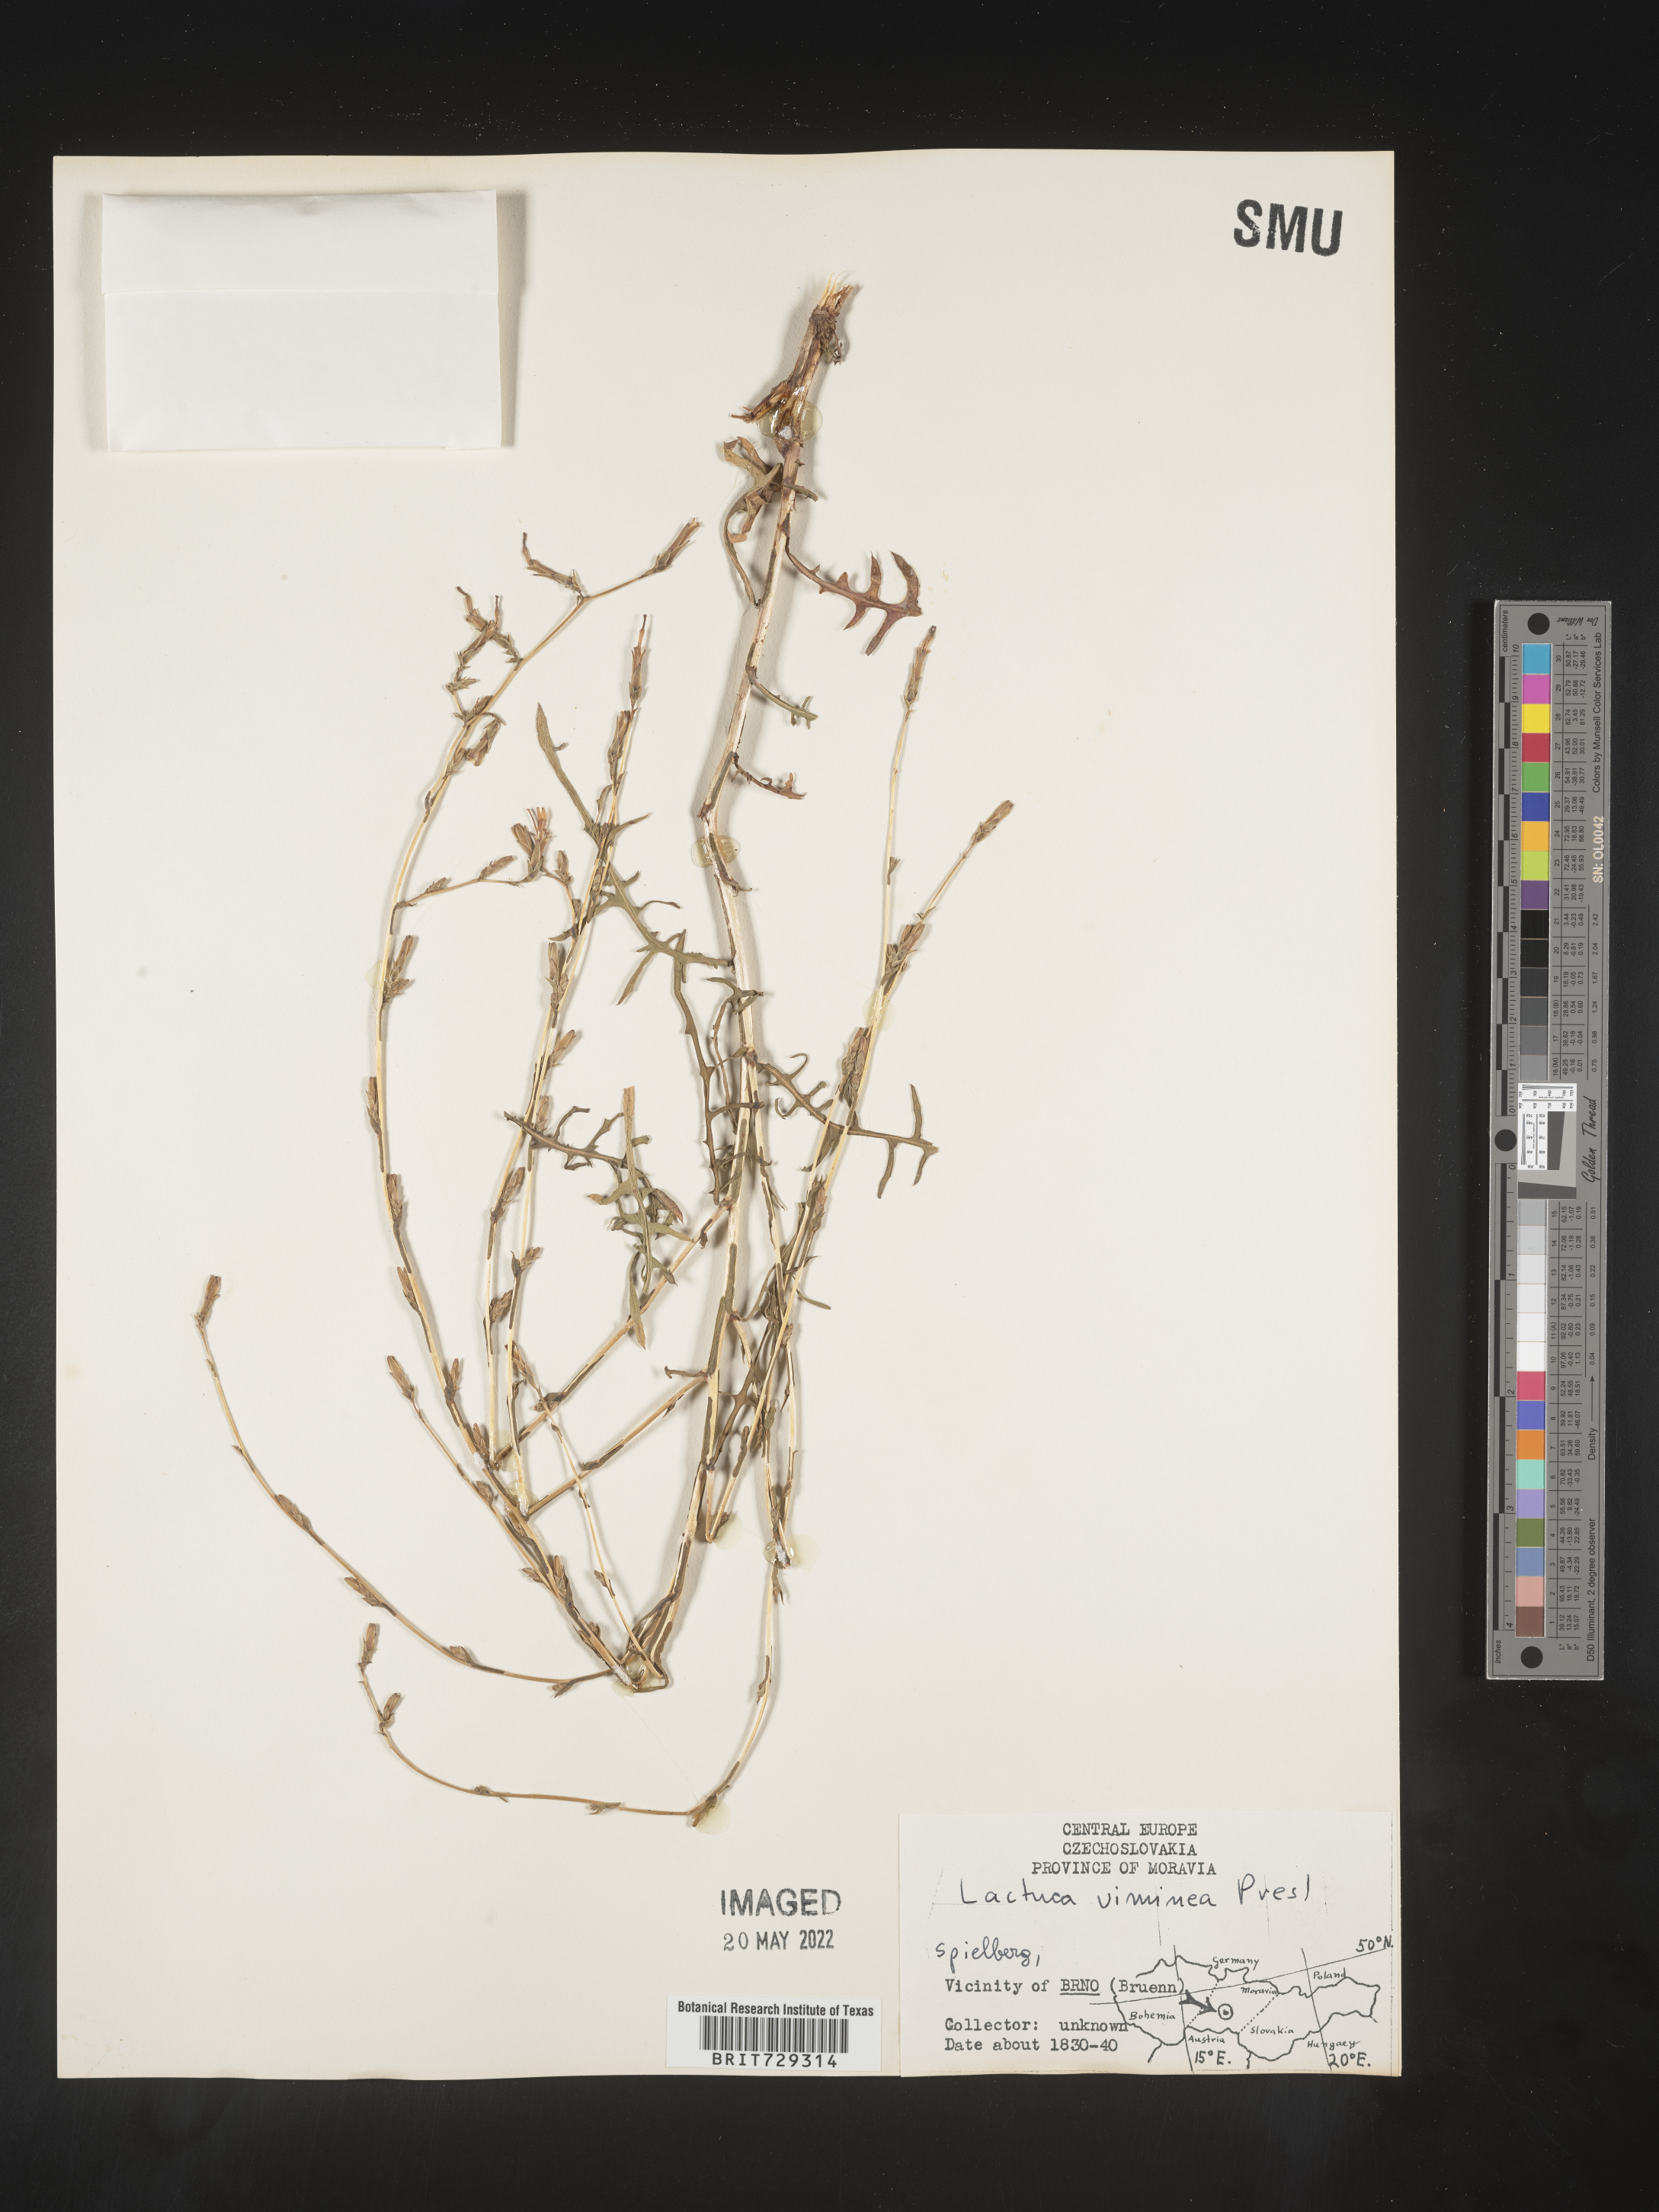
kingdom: Plantae
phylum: Tracheophyta
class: Magnoliopsida
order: Asterales
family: Asteraceae
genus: Lactuca
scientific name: Lactuca
